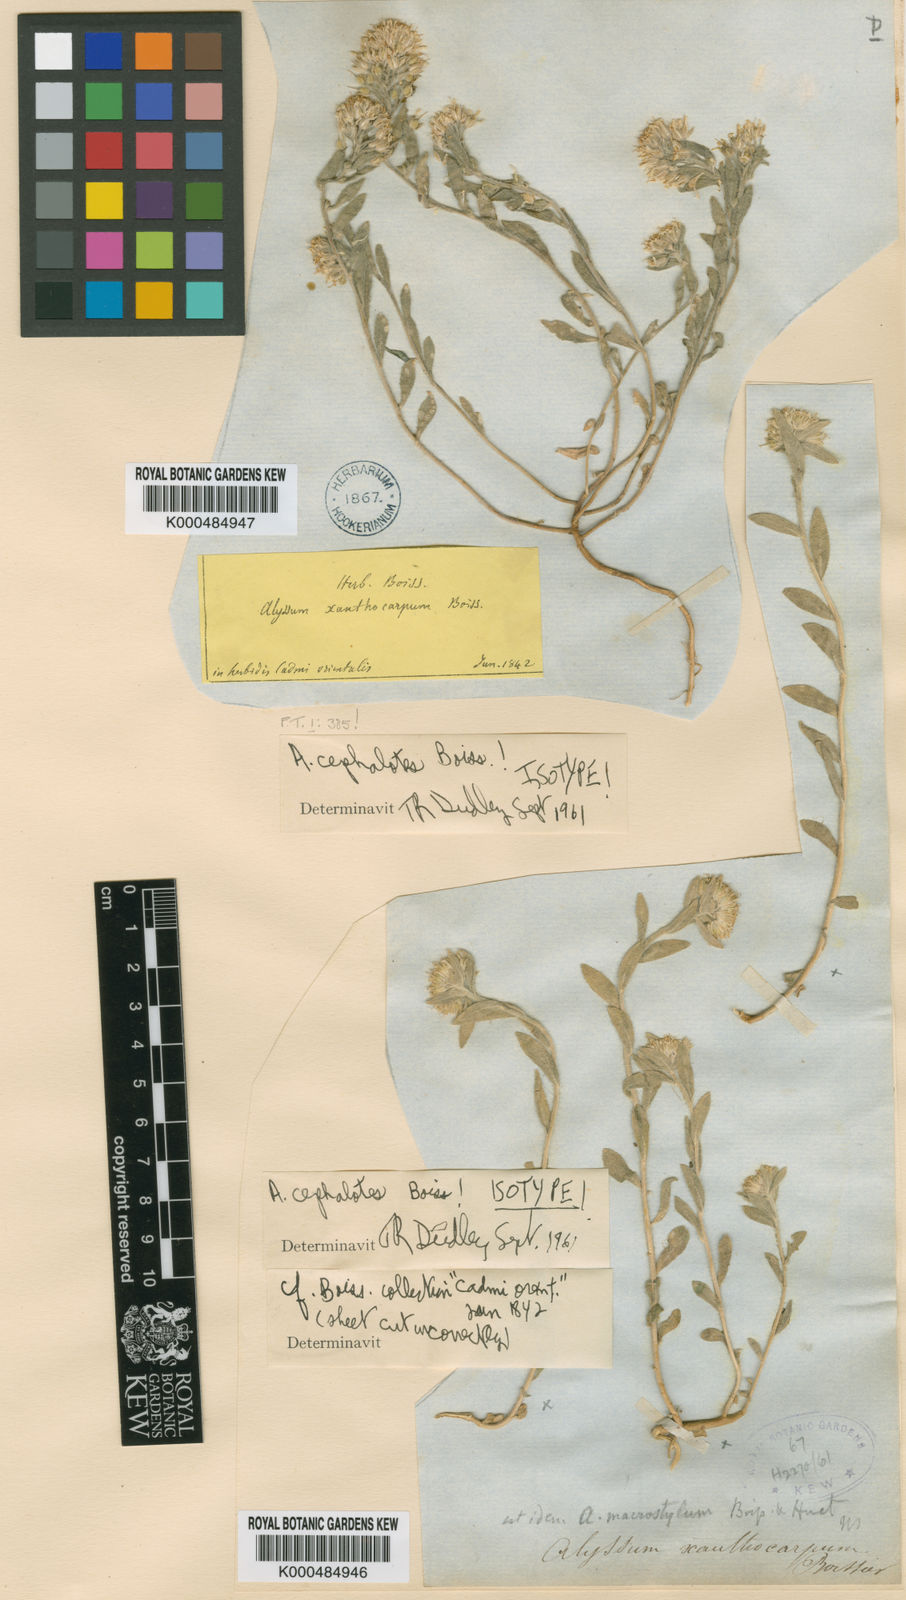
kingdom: Plantae
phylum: Tracheophyta
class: Magnoliopsida
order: Brassicales
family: Brassicaceae
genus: Alyssum
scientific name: Alyssum cephalotes
